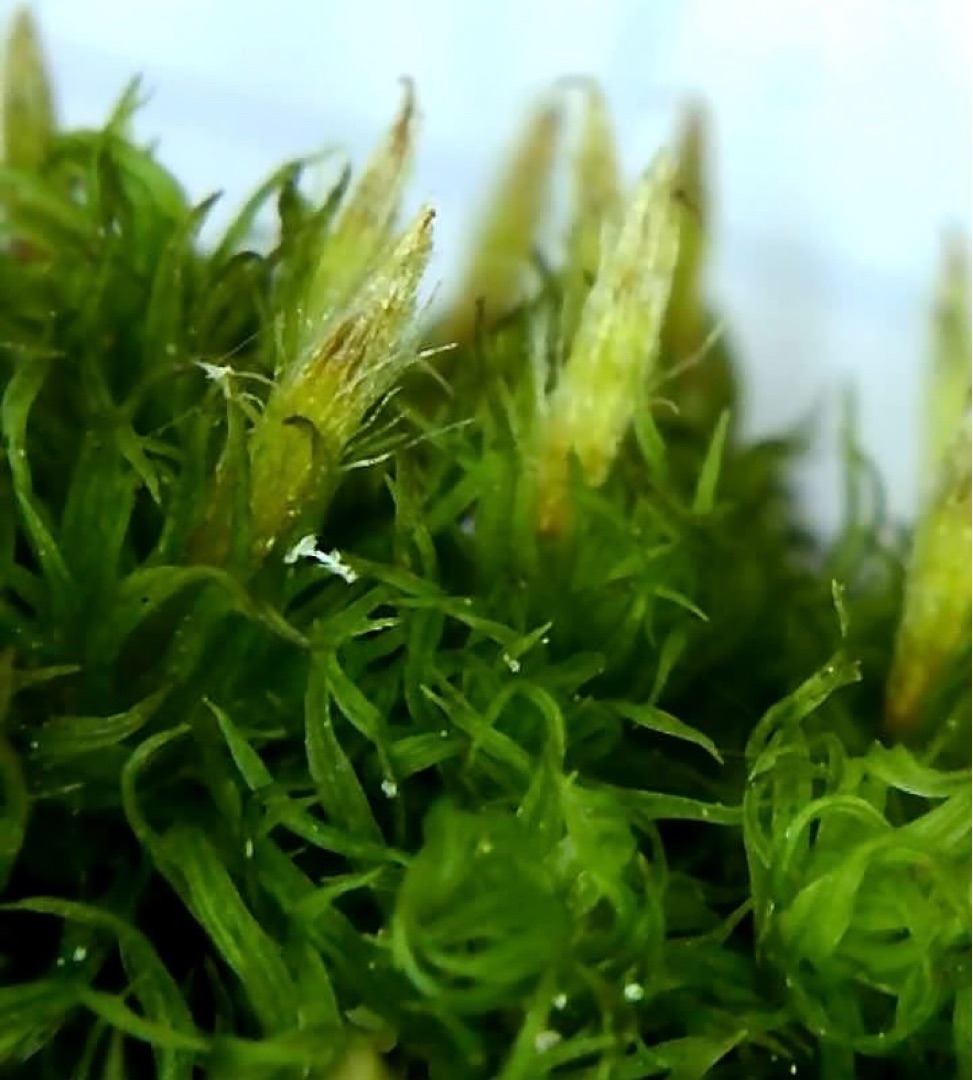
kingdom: Plantae
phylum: Bryophyta
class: Bryopsida
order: Orthotrichales
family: Orthotrichaceae
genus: Ulota
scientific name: Ulota
